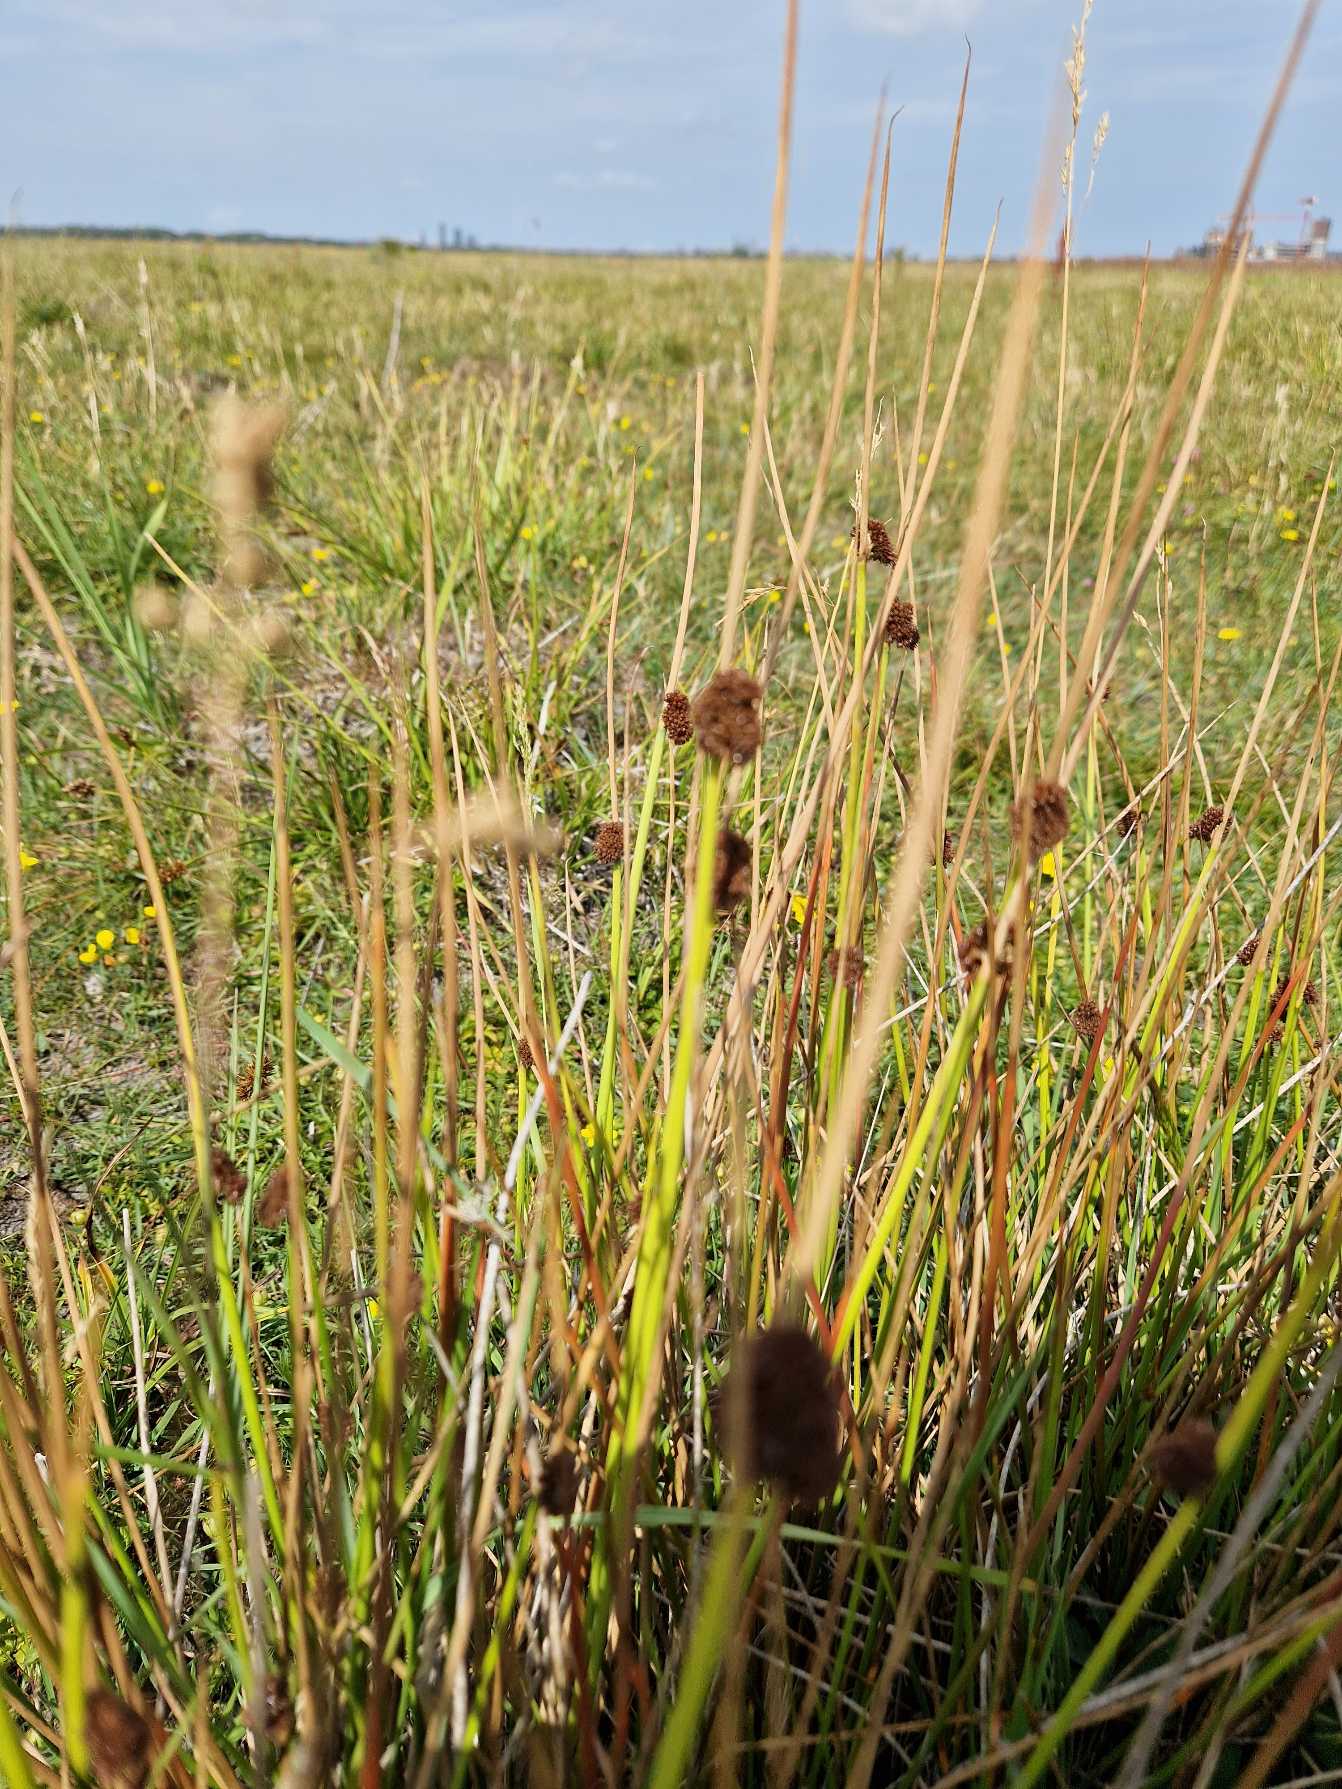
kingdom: Plantae
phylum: Tracheophyta
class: Liliopsida
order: Poales
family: Juncaceae
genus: Juncus
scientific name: Juncus conglomeratus
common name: Knop-siv
